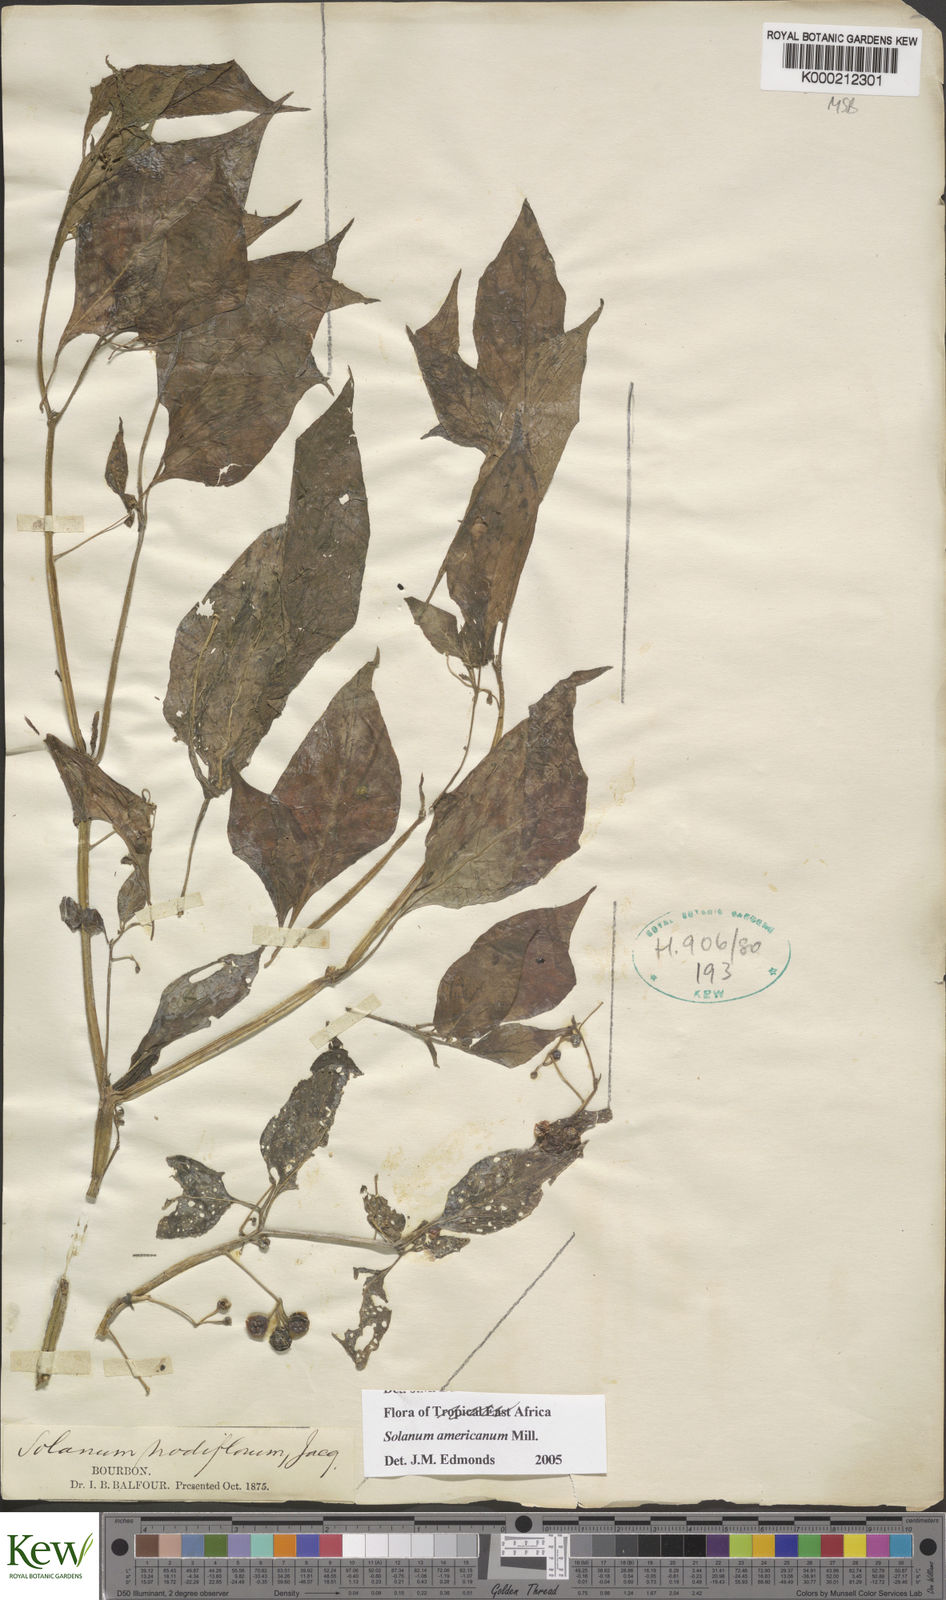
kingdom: Plantae
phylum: Tracheophyta
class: Magnoliopsida
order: Solanales
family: Solanaceae
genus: Solanum
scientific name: Solanum americanum
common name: American black nightshade
